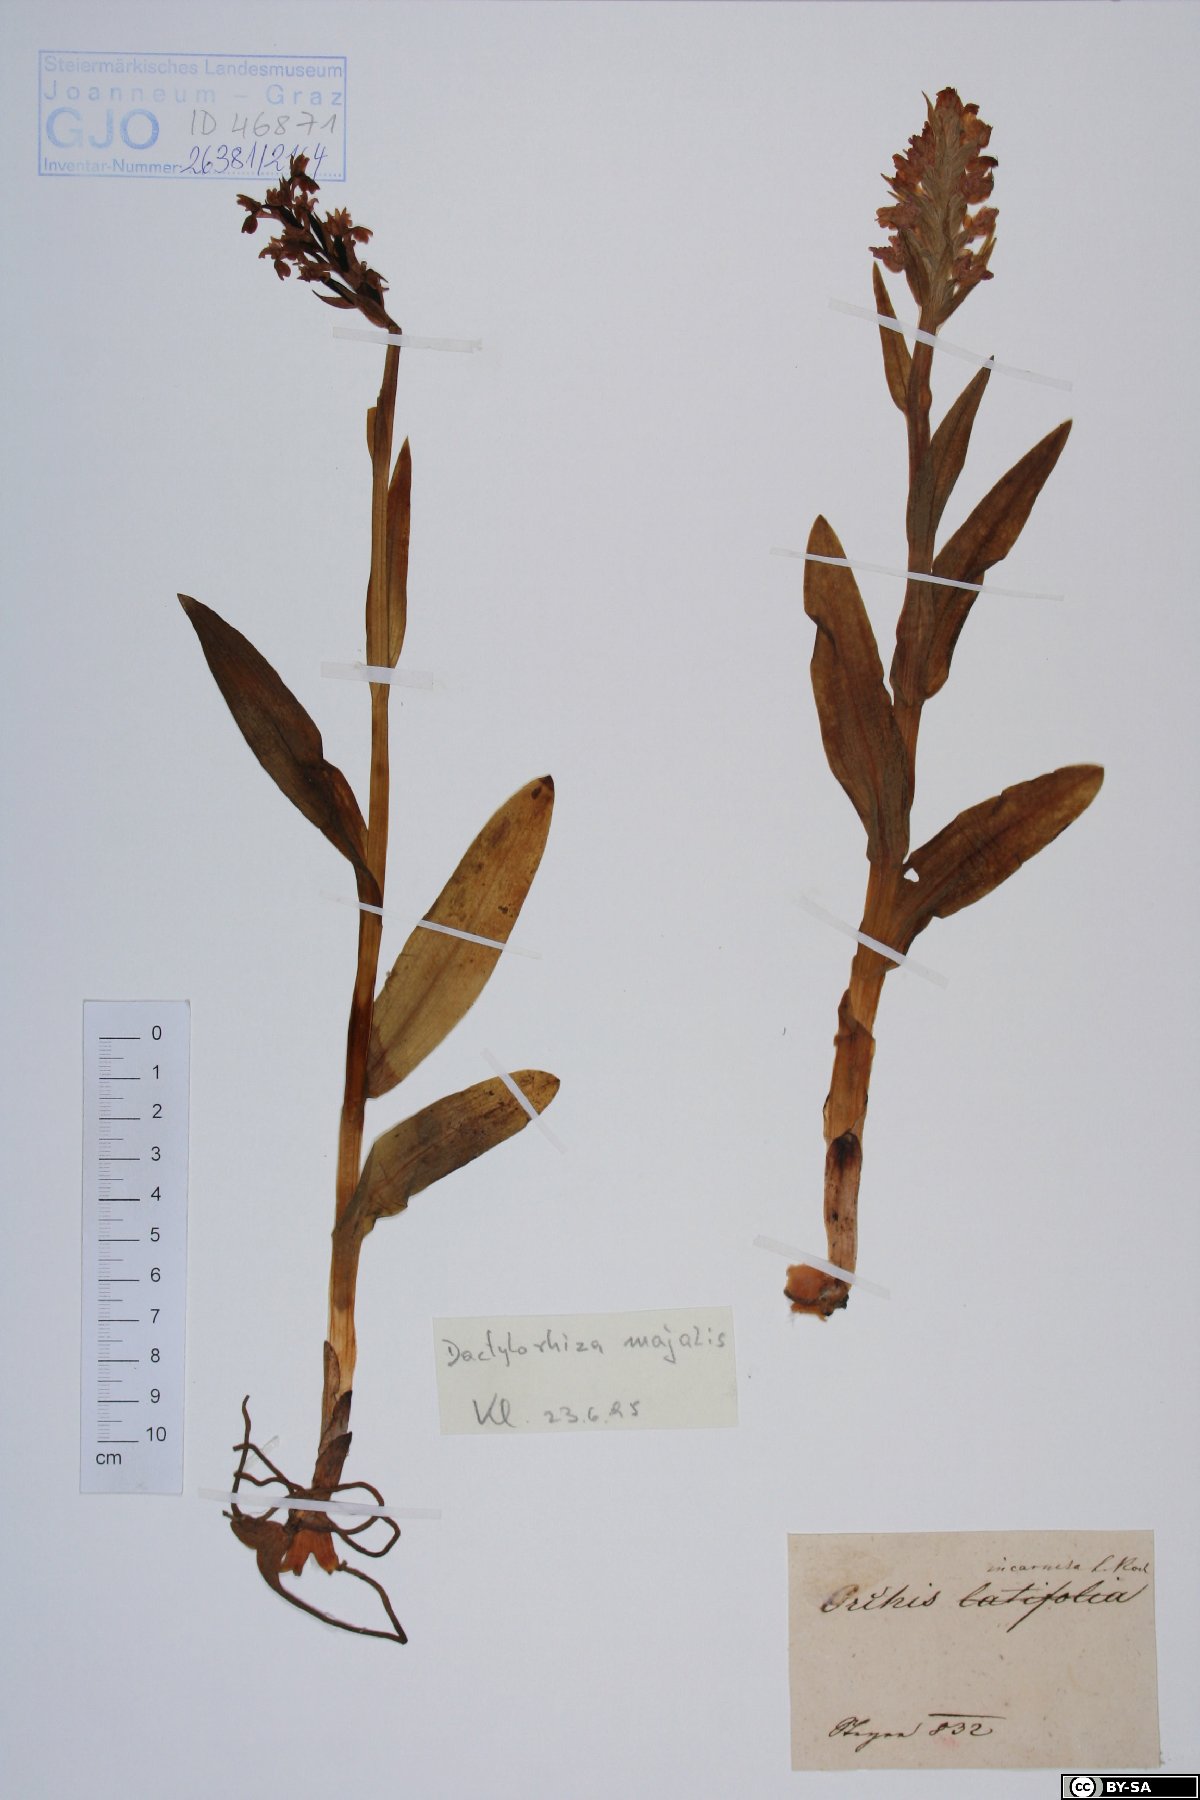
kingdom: Plantae
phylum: Tracheophyta
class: Liliopsida
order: Asparagales
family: Orchidaceae
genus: Dactylorhiza
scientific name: Dactylorhiza majalis
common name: Marsh orchid
